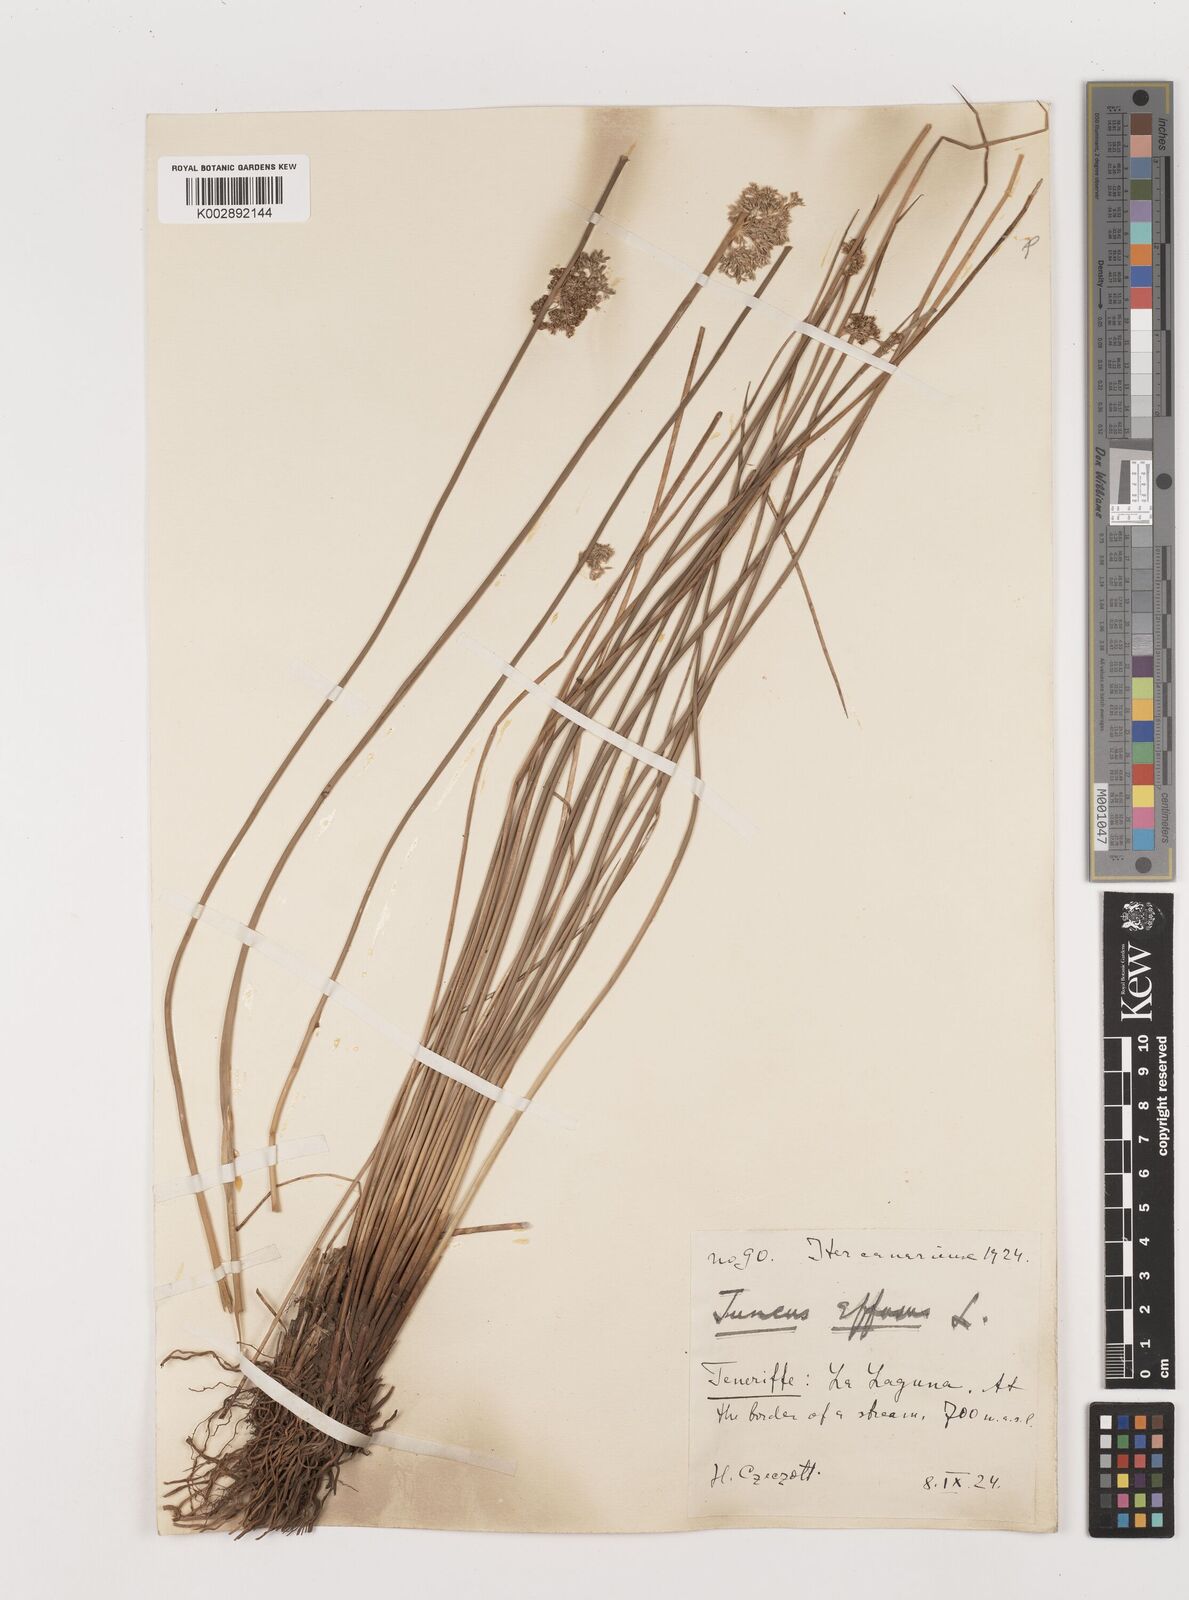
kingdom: Plantae
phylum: Tracheophyta
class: Liliopsida
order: Poales
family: Juncaceae
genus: Juncus
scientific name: Juncus effusus
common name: Soft rush
